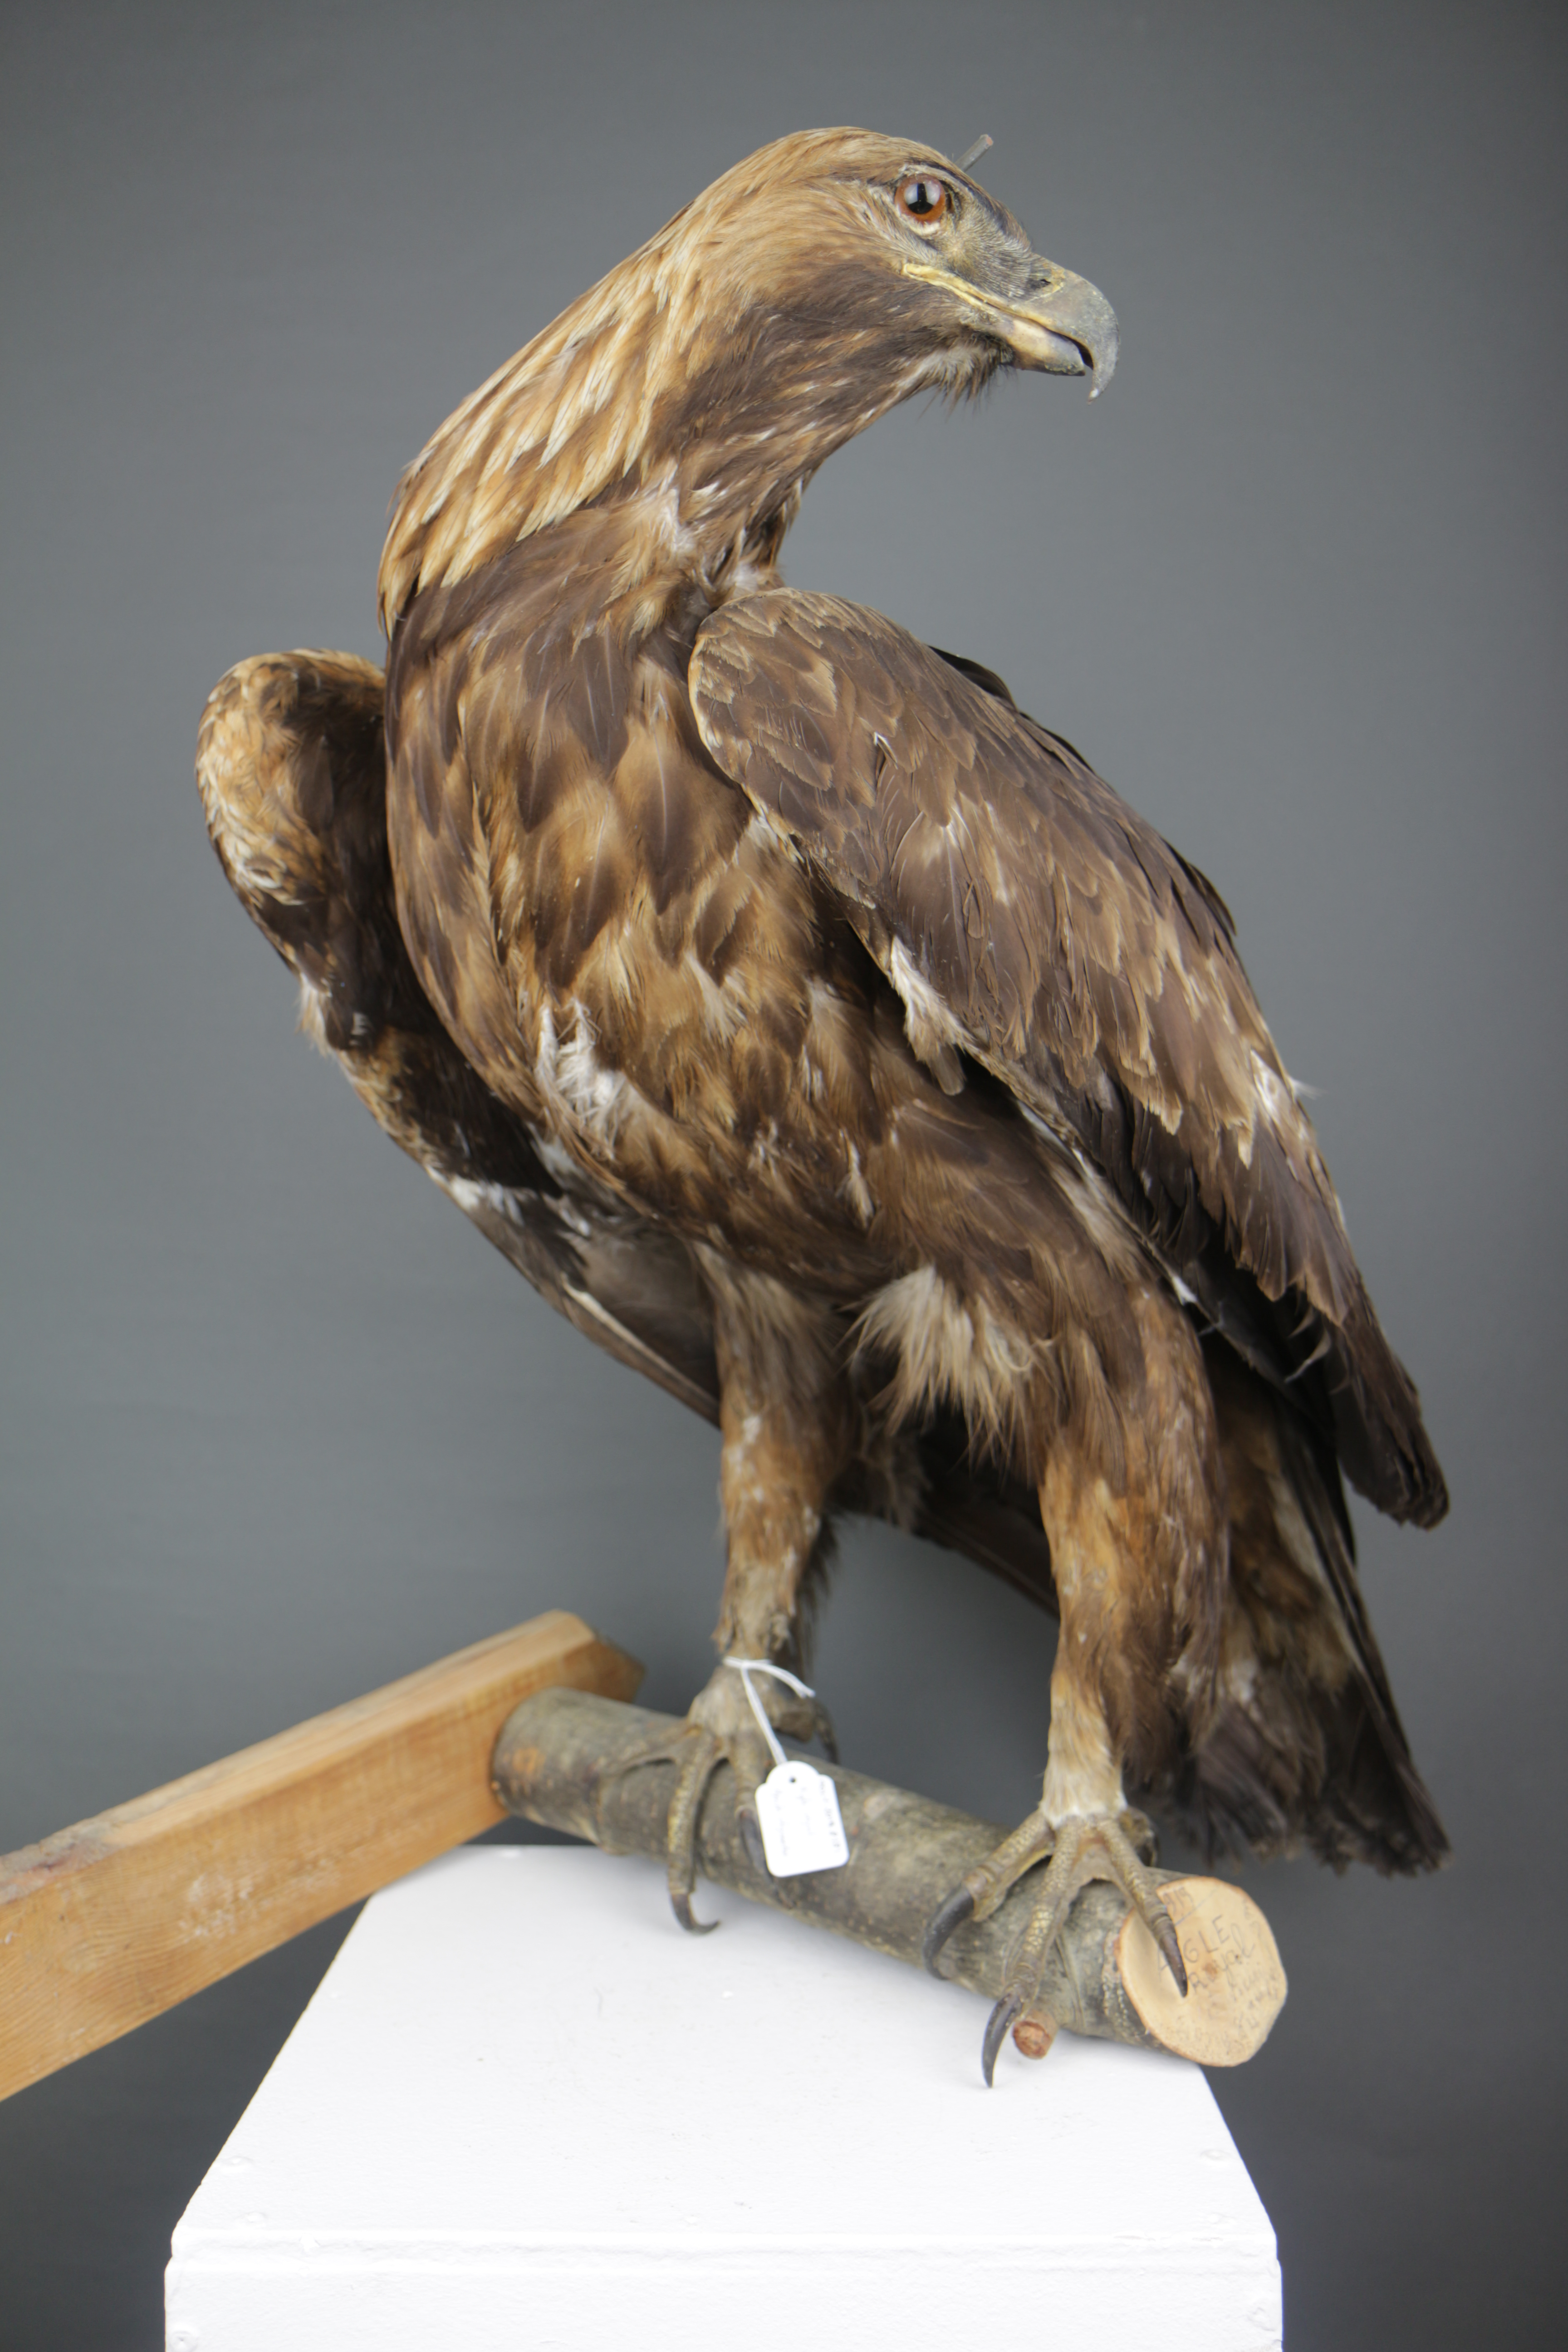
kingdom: Animalia
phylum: Chordata
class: Aves
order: Accipitriformes
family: Accipitridae
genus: Aquila
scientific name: Aquila chrysaetos
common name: Golden eagle
